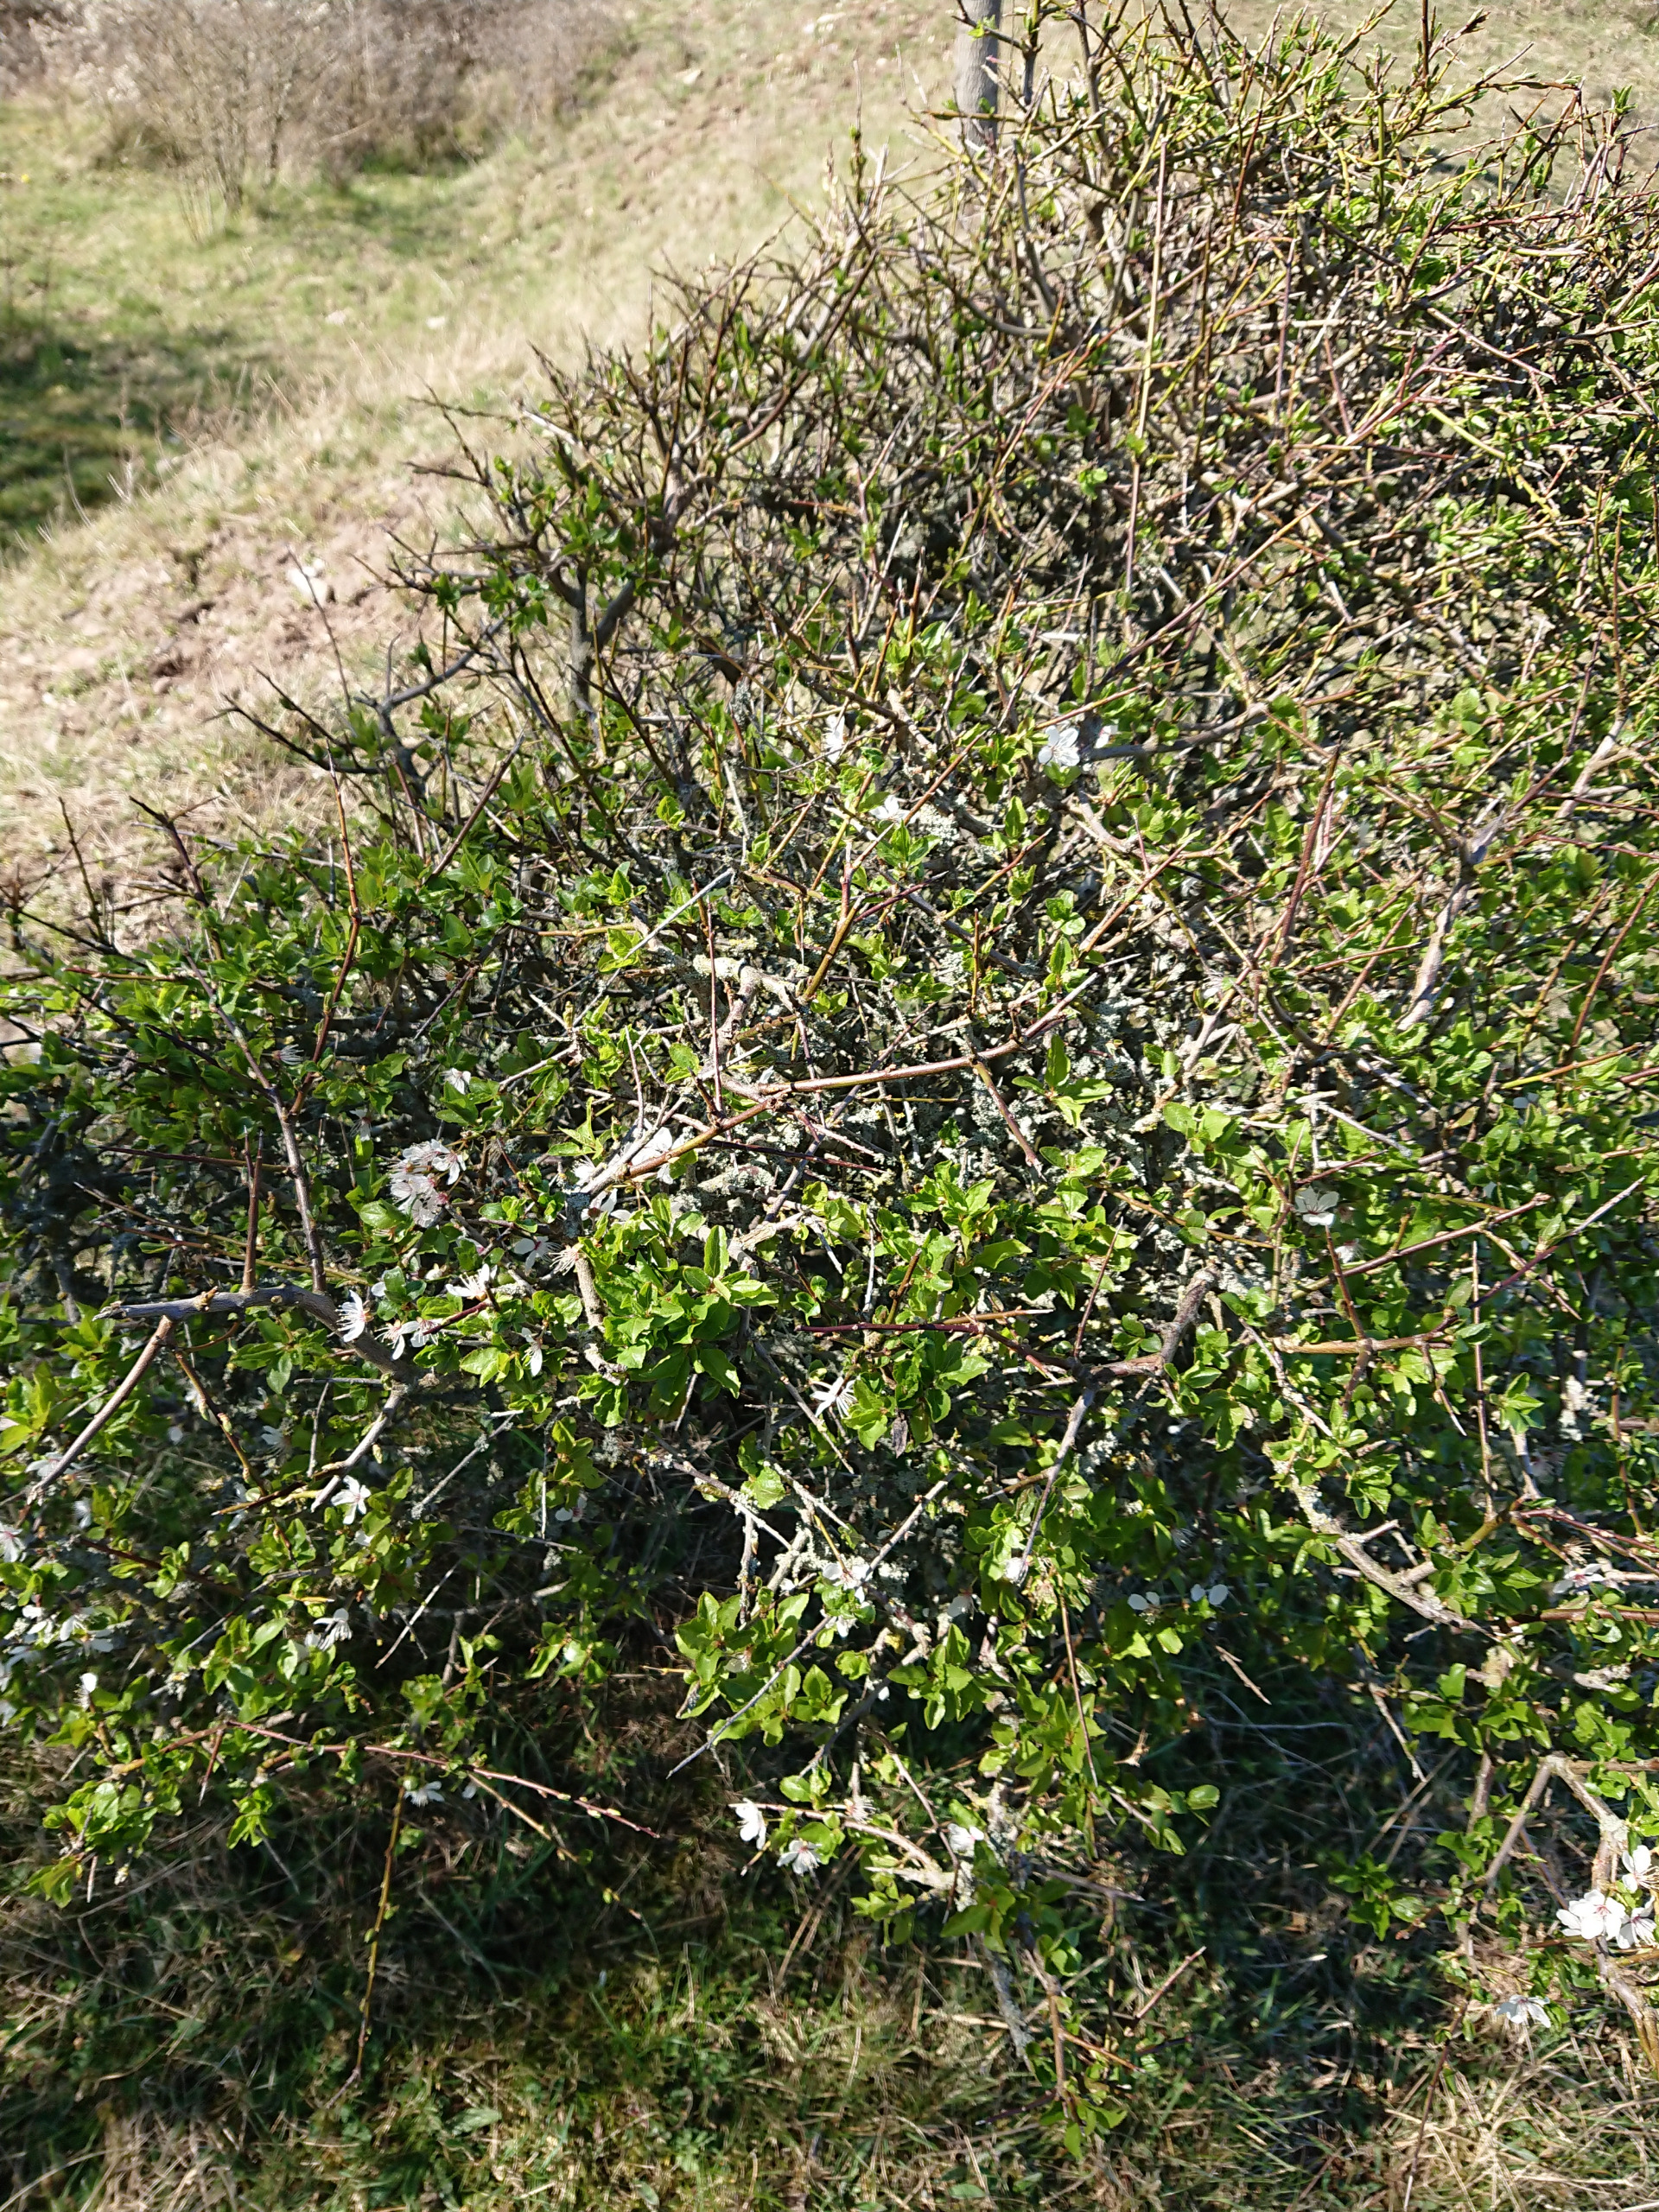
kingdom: Plantae
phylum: Tracheophyta
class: Magnoliopsida
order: Rosales
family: Rosaceae
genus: Prunus
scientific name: Prunus cerasifera
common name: Mirabel
